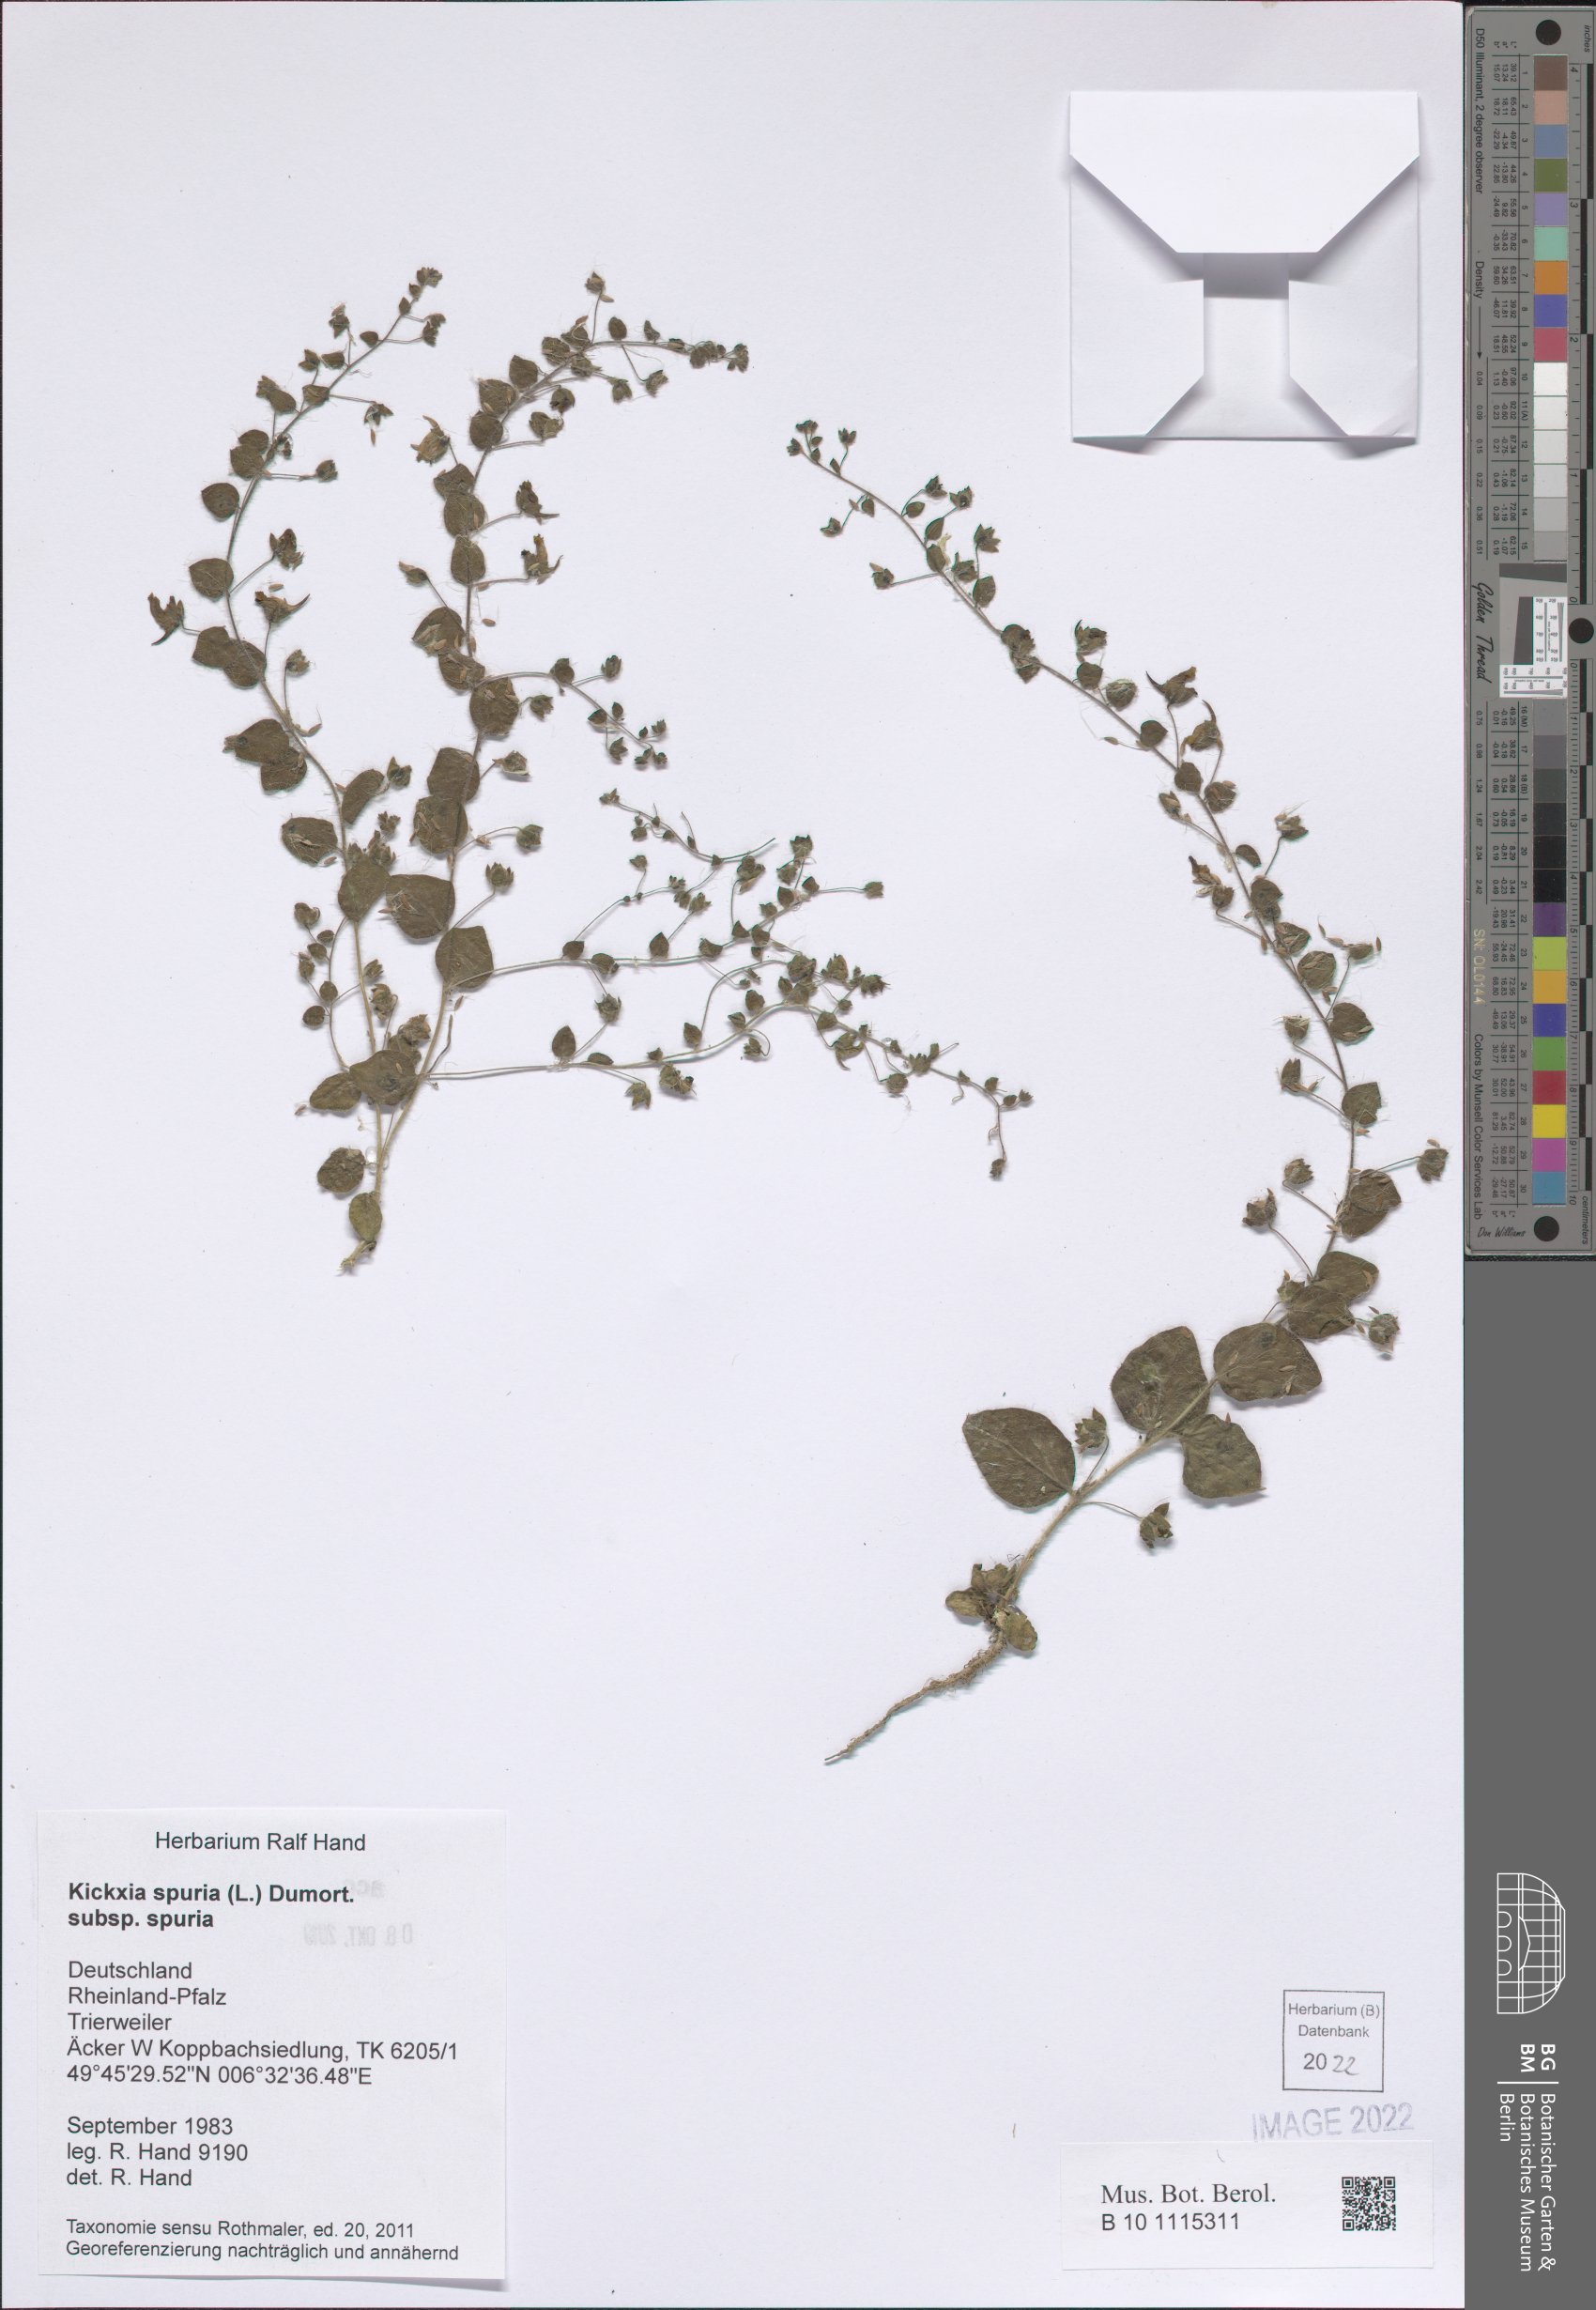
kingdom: Plantae
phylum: Tracheophyta
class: Magnoliopsida
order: Lamiales
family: Plantaginaceae
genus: Kickxia
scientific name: Kickxia spuria
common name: Round-leaved fluellen
